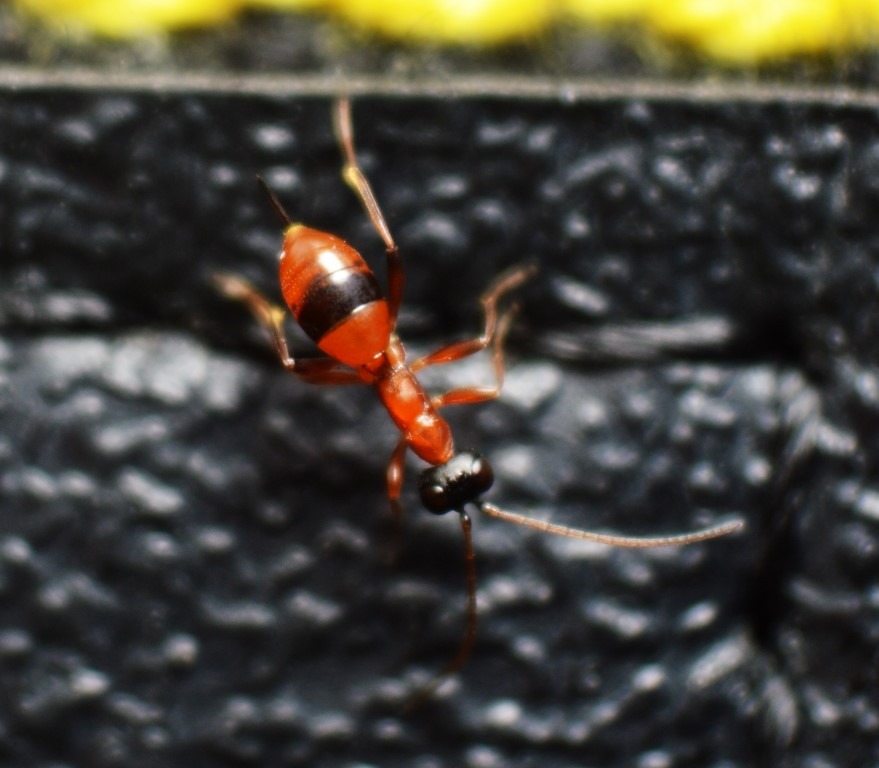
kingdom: Animalia
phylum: Arthropoda
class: Insecta
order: Hymenoptera
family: Ichneumonidae
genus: Gelis
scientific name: Gelis melanocephalus
